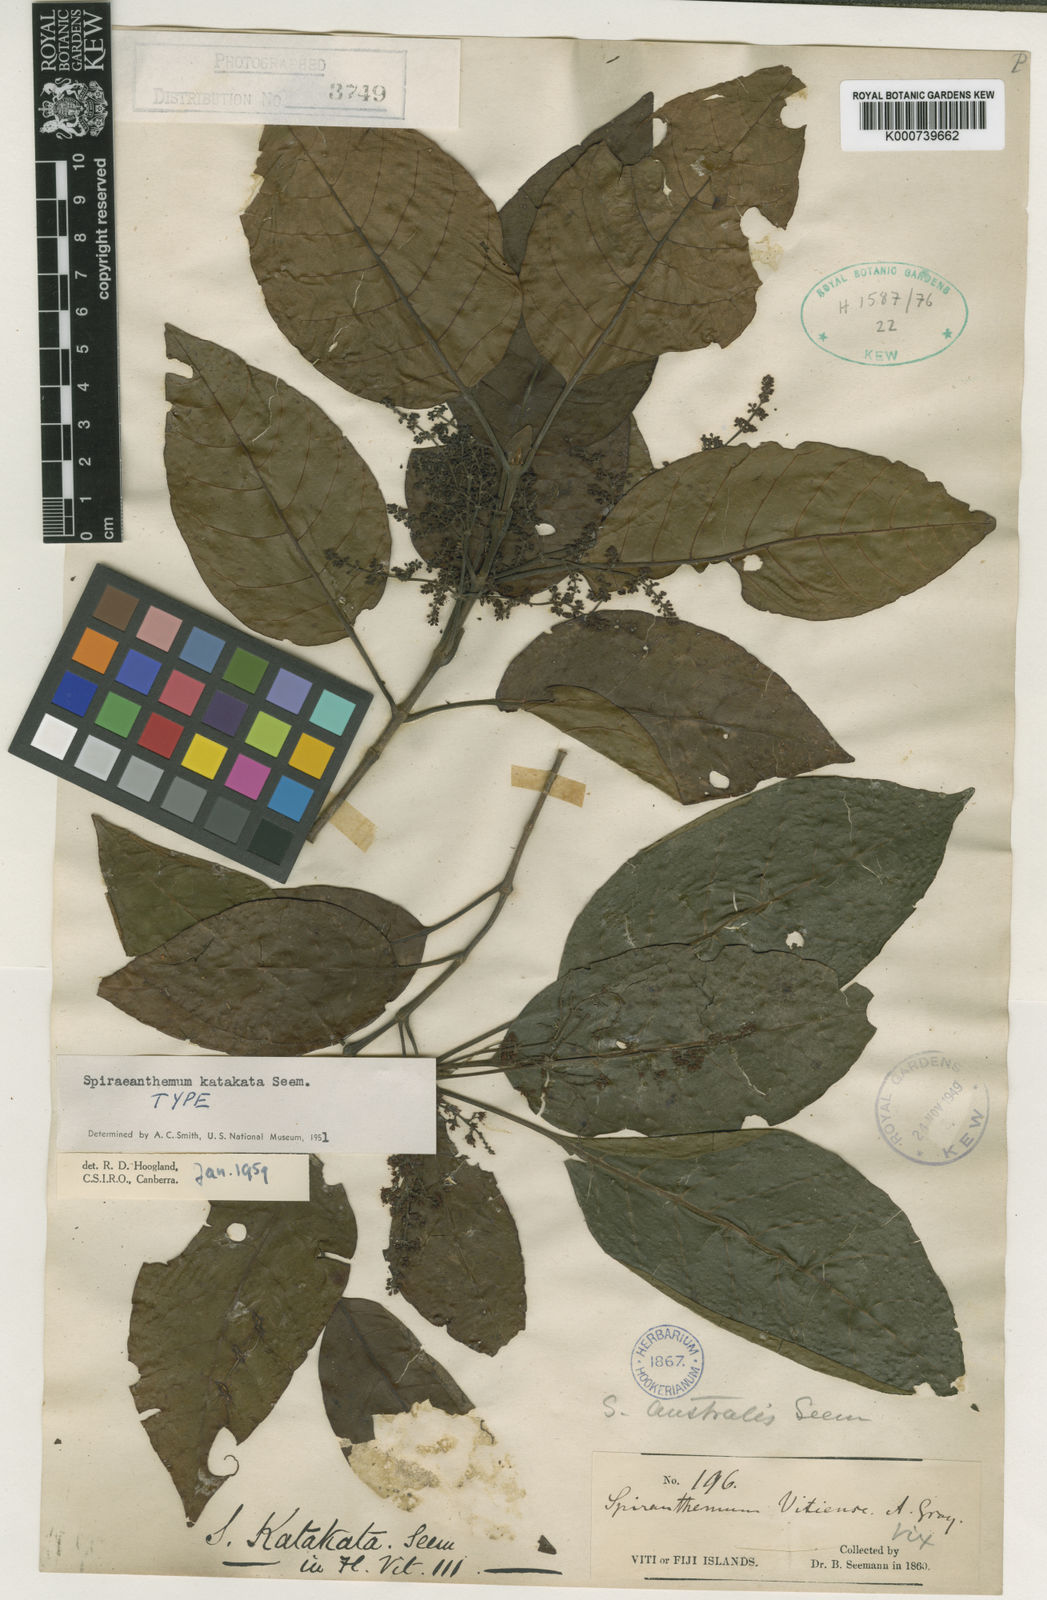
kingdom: Plantae
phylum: Tracheophyta
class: Magnoliopsida
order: Oxalidales
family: Cunoniaceae
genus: Spiraeanthemum
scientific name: Spiraeanthemum katakata
